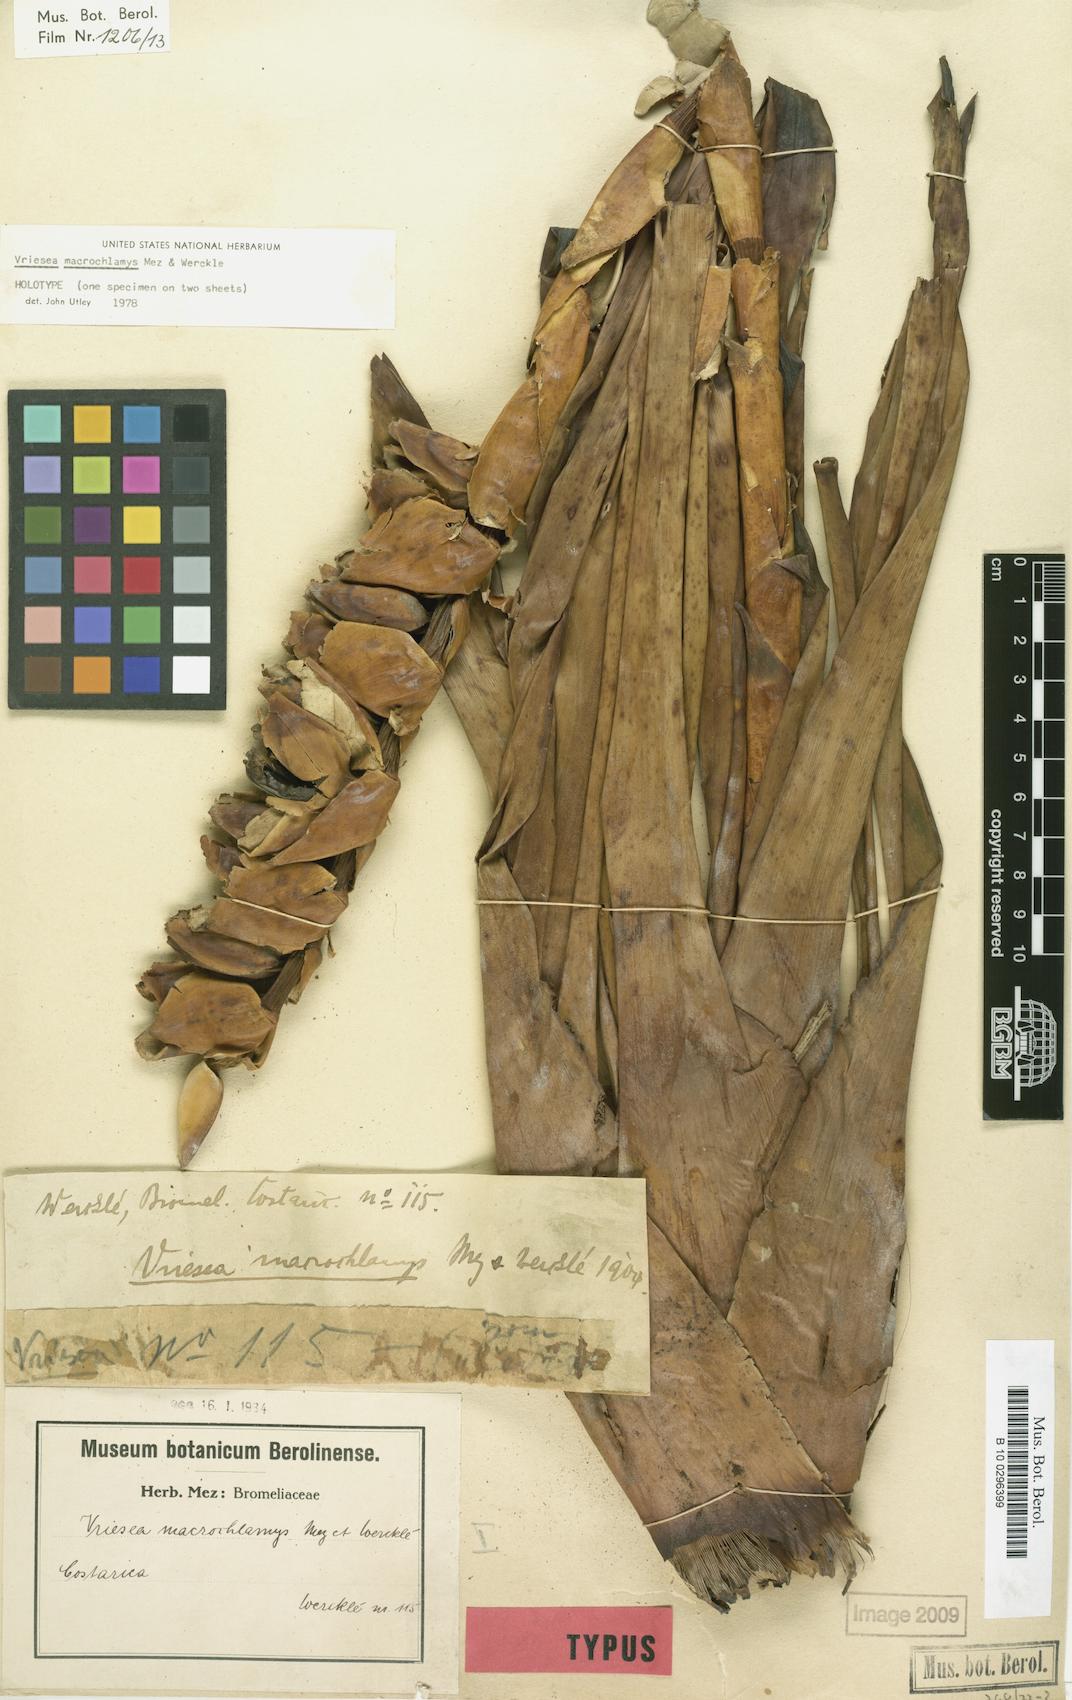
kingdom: Plantae
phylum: Tracheophyta
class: Liliopsida
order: Poales
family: Bromeliaceae
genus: Werauhia
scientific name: Werauhia macrochlamys
